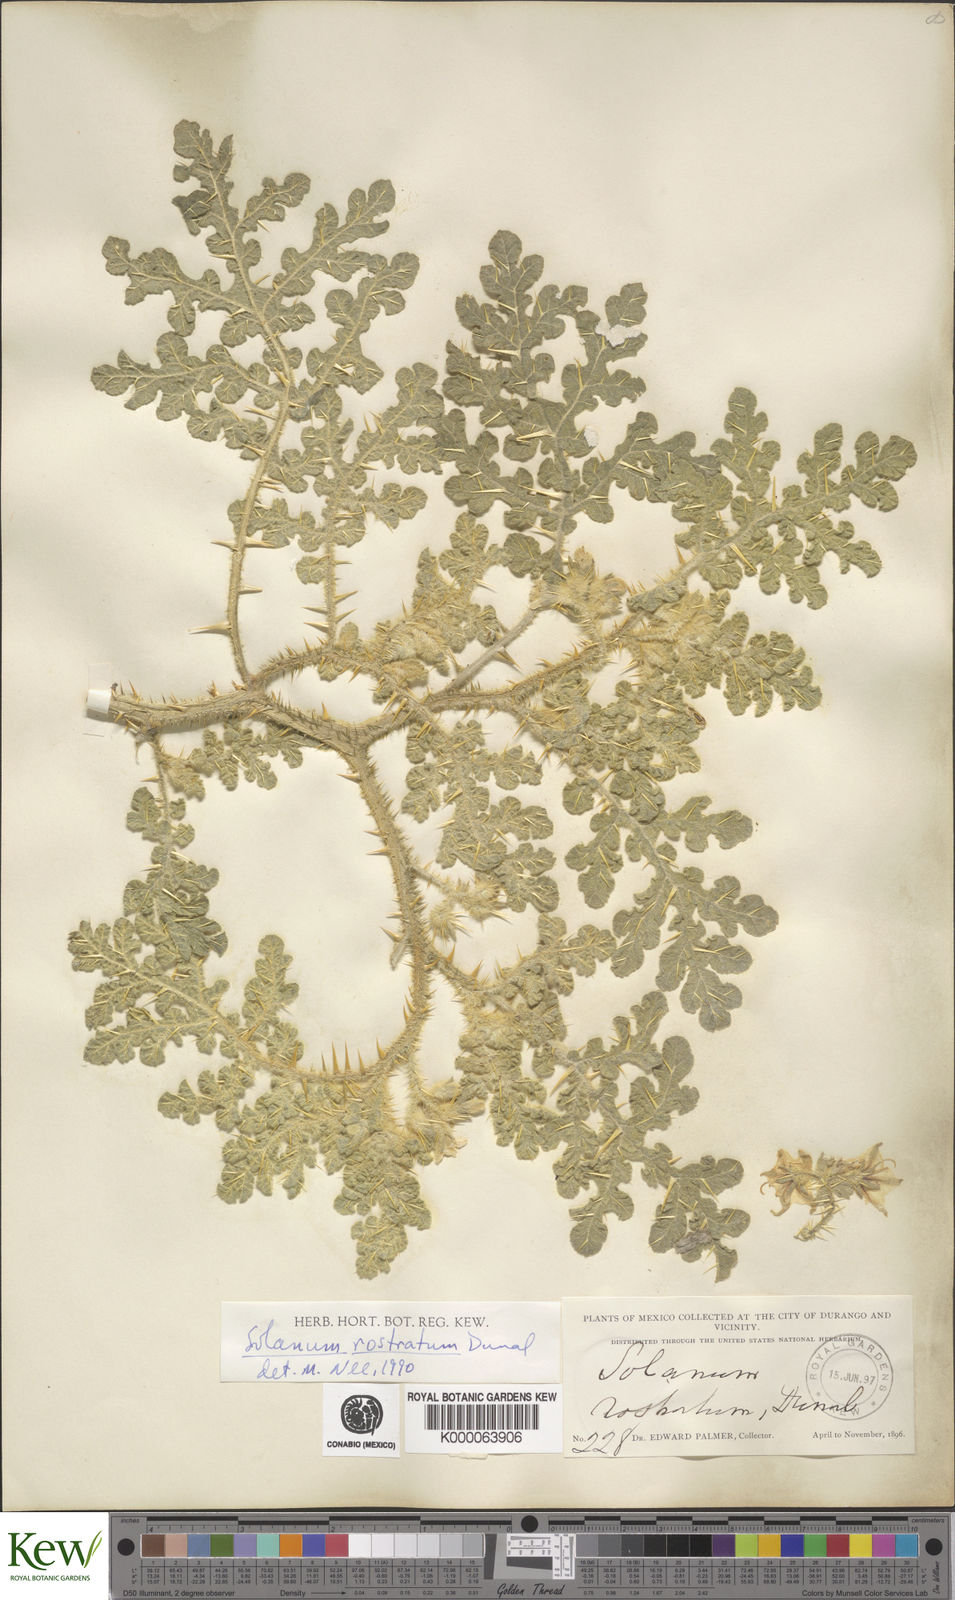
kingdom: Plantae
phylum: Tracheophyta
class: Magnoliopsida
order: Solanales
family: Solanaceae
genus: Solanum
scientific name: Solanum angustifolium
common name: Buffalobur nightshade
